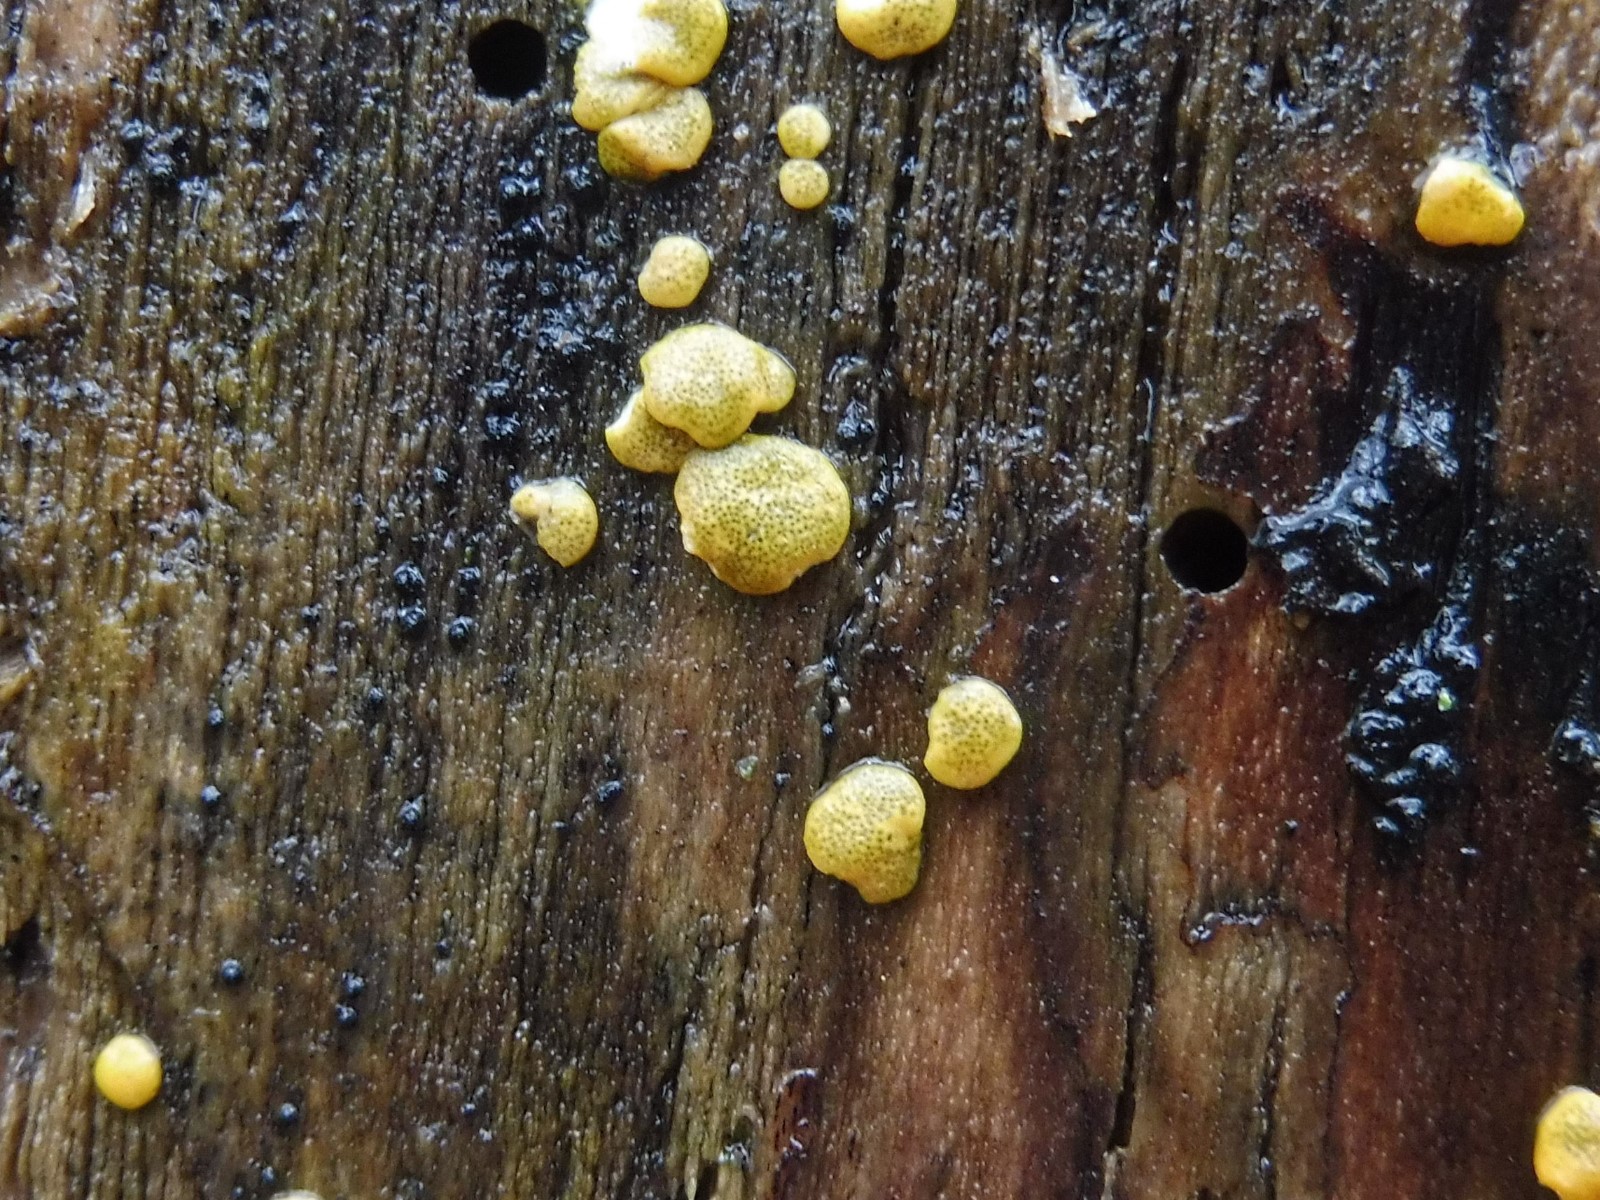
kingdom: Fungi
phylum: Ascomycota
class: Sordariomycetes
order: Hypocreales
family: Hypocreaceae
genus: Trichoderma
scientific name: Trichoderma aureoviride
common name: æggegul kødkerne
